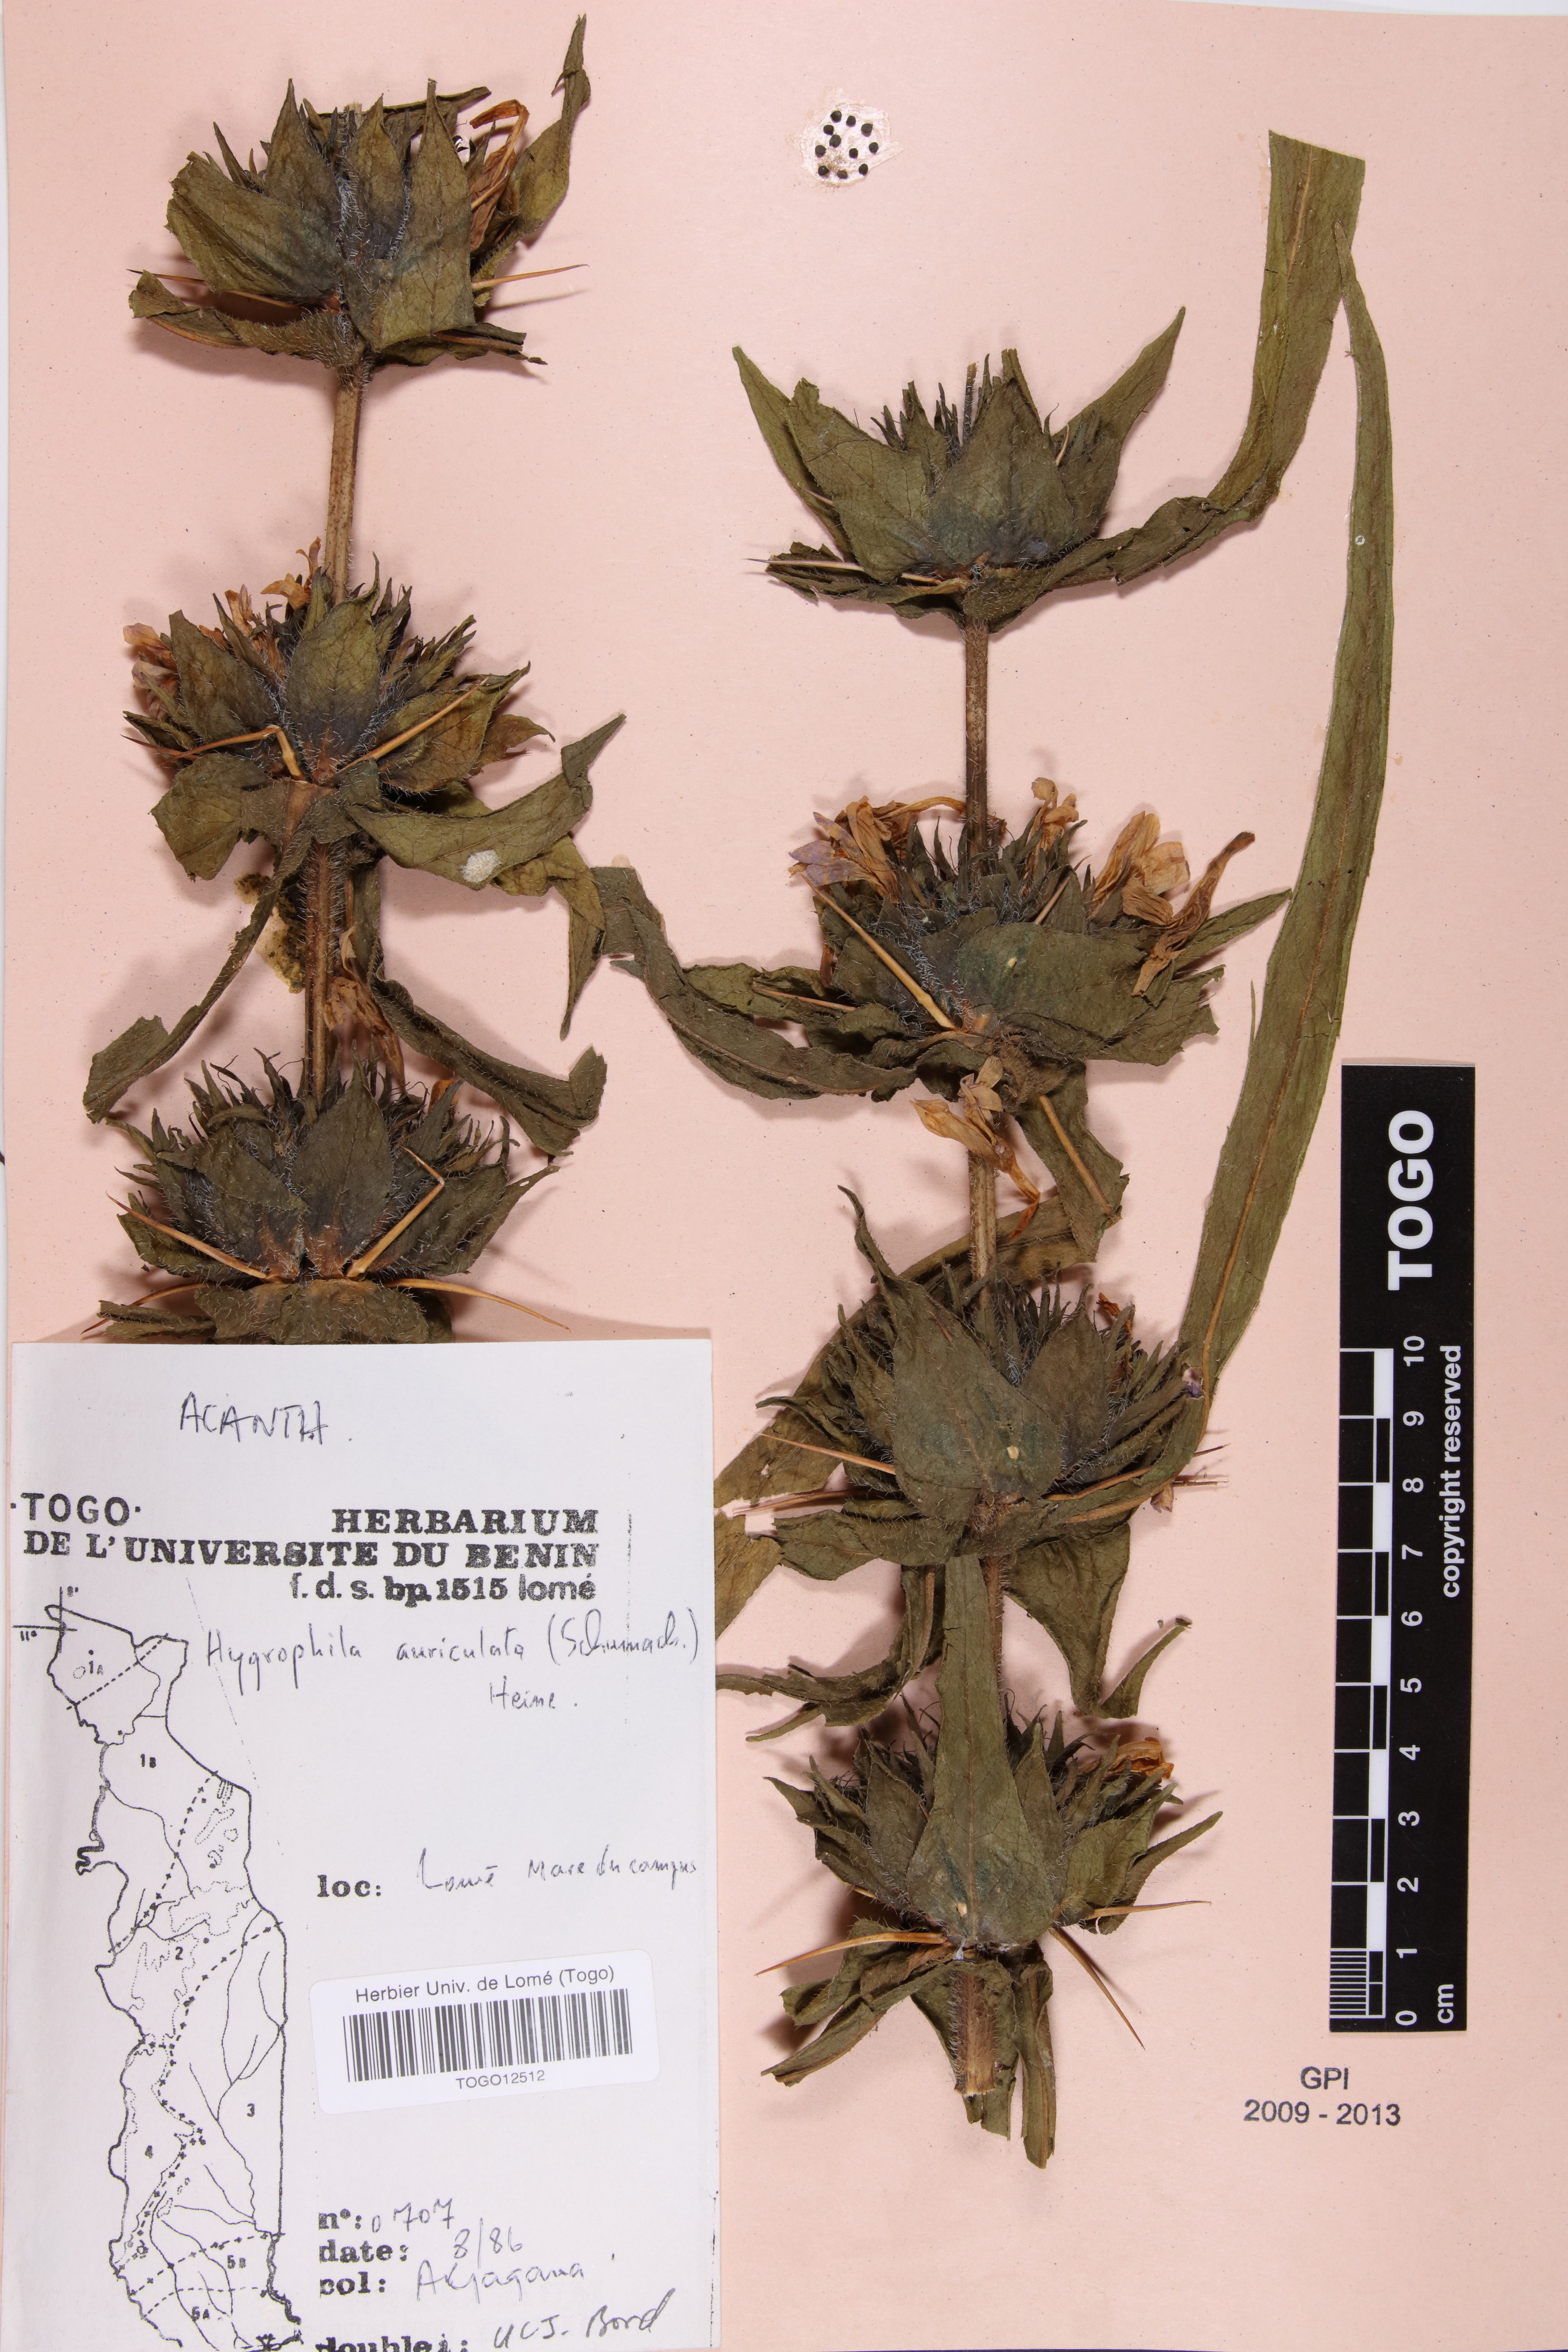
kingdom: Plantae
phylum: Tracheophyta
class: Magnoliopsida
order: Lamiales
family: Acanthaceae
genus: Hygrophila
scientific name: Hygrophila auriculata
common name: Hygrophila
